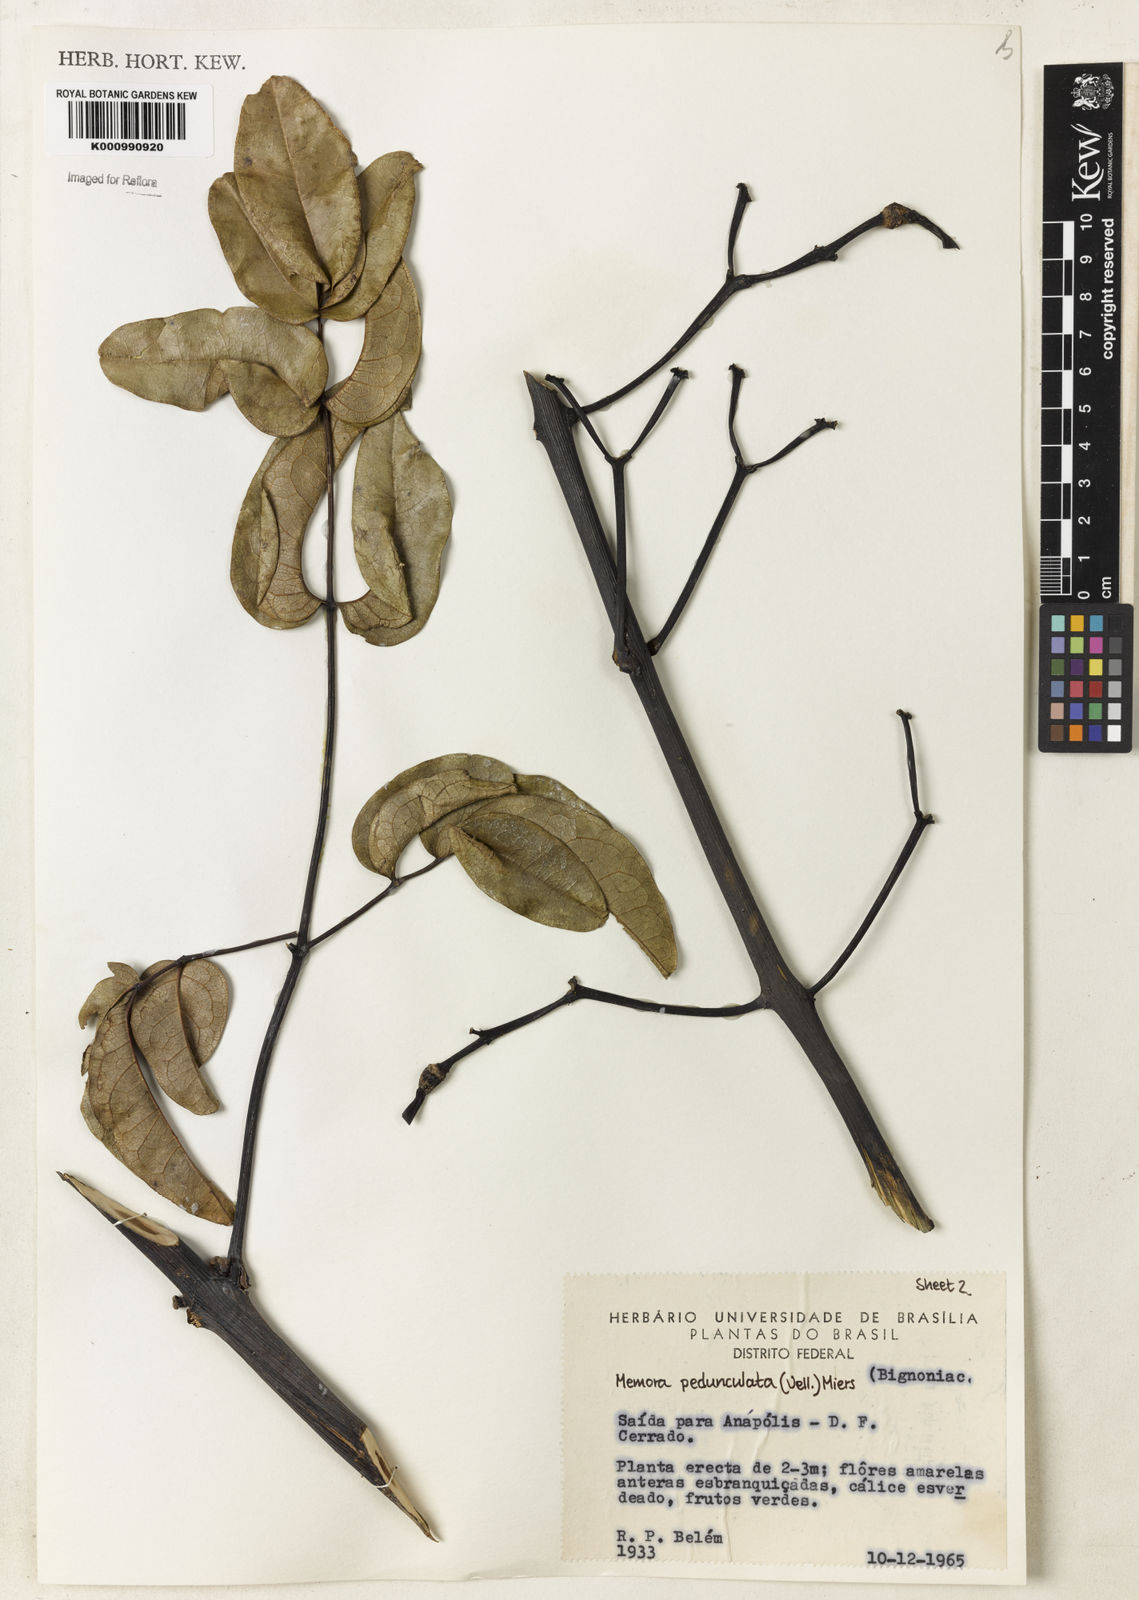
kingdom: Plantae
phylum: Tracheophyta
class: Magnoliopsida
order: Lamiales
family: Bignoniaceae
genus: Adenocalymma
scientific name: Adenocalymma pedunculatum
